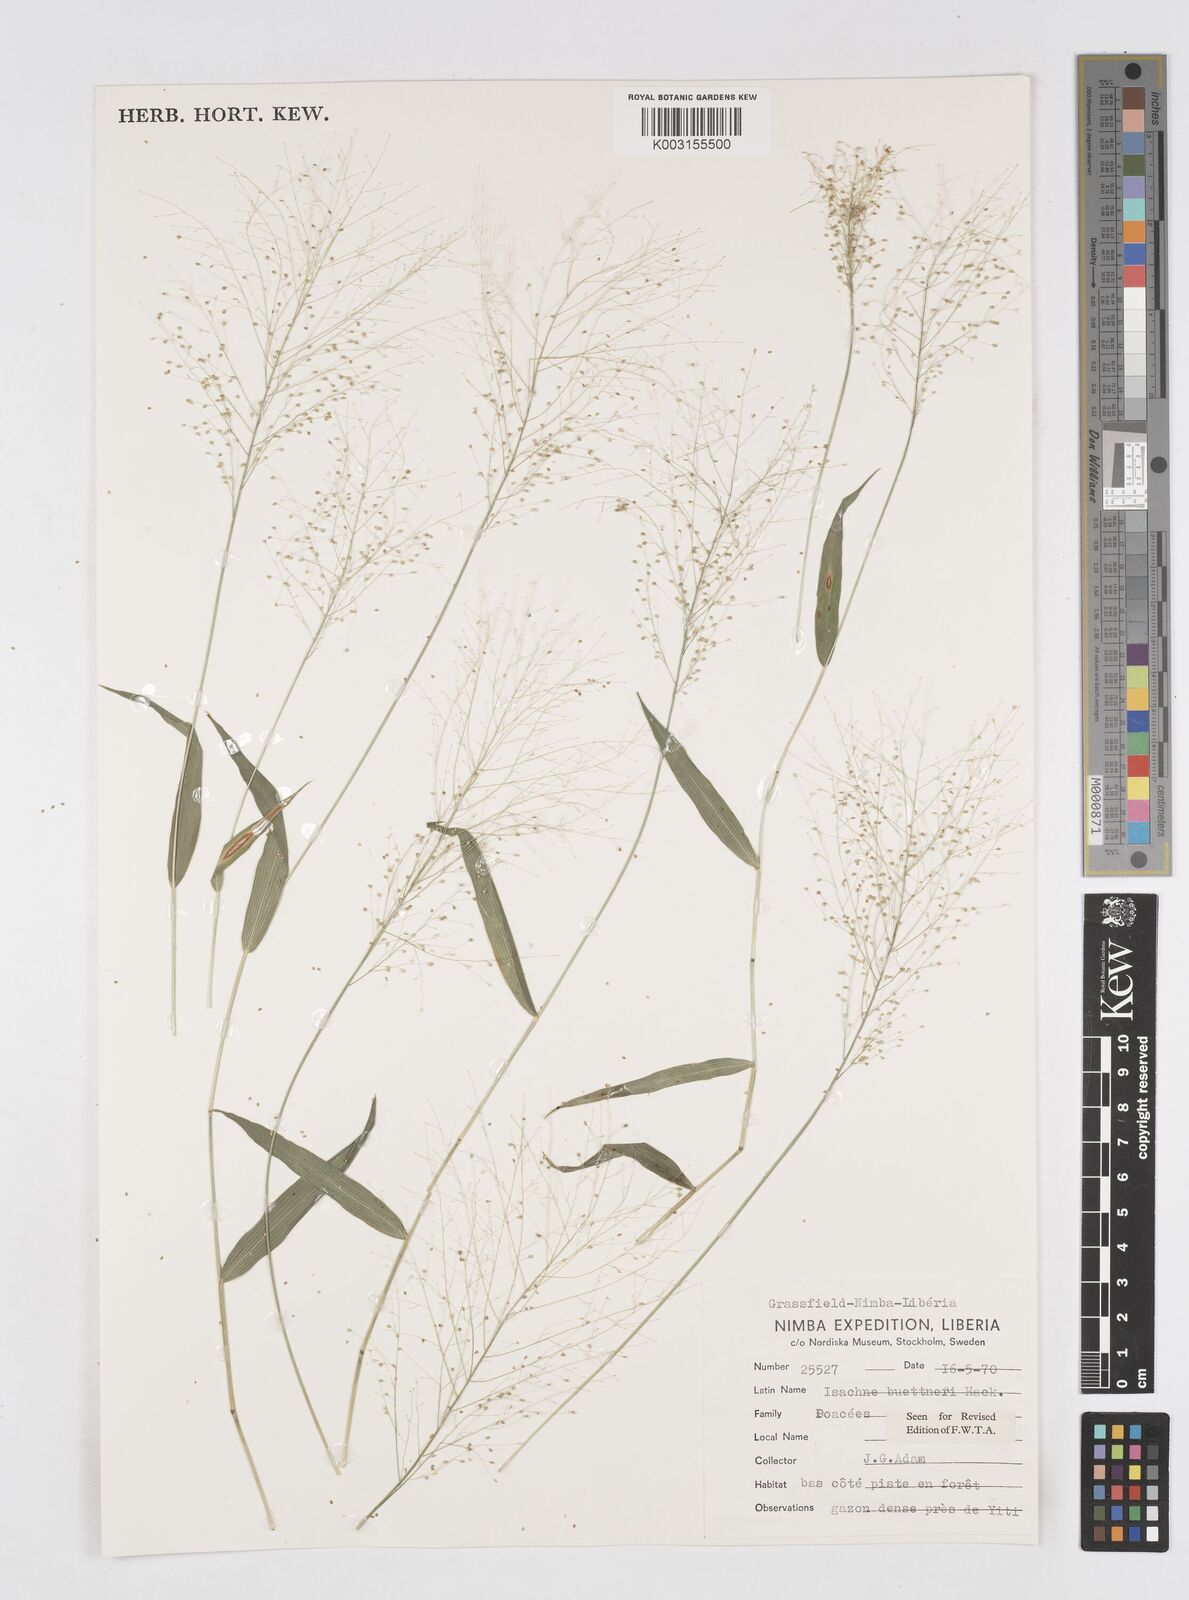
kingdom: Plantae
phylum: Tracheophyta
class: Liliopsida
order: Poales
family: Poaceae
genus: Isachne
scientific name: Isachne albens
